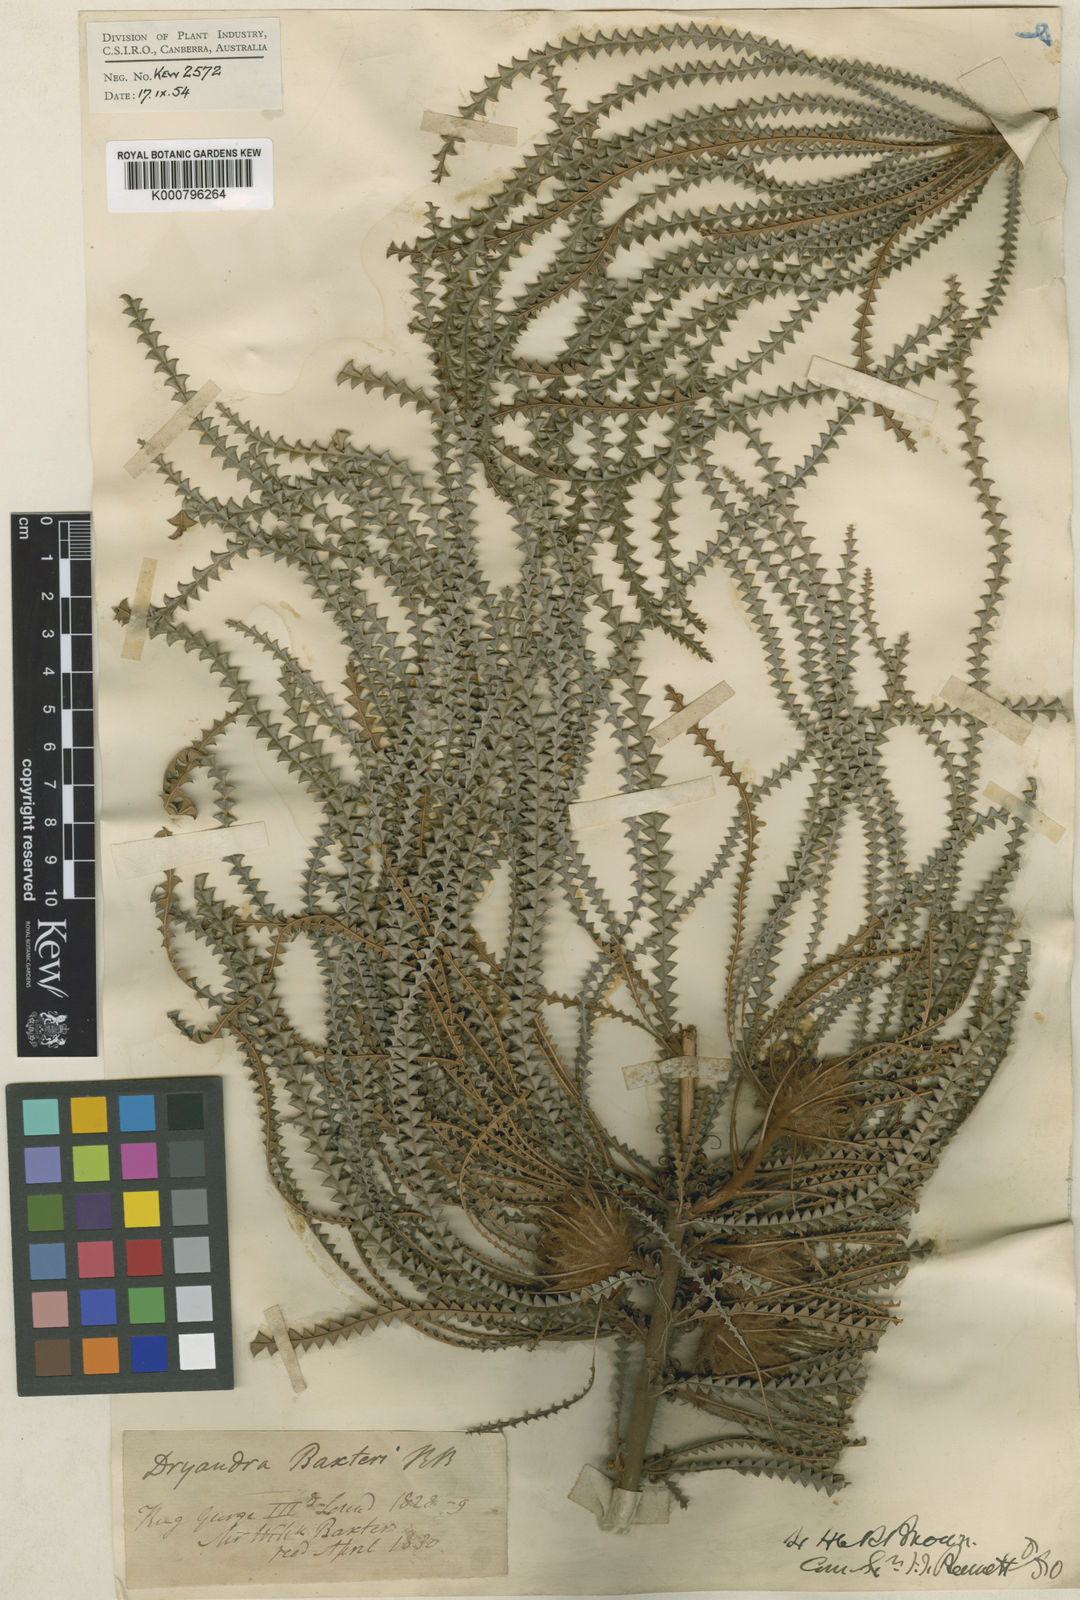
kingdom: Plantae
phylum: Tracheophyta
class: Magnoliopsida
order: Proteales
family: Proteaceae
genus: Banksia
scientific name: Banksia biterax
